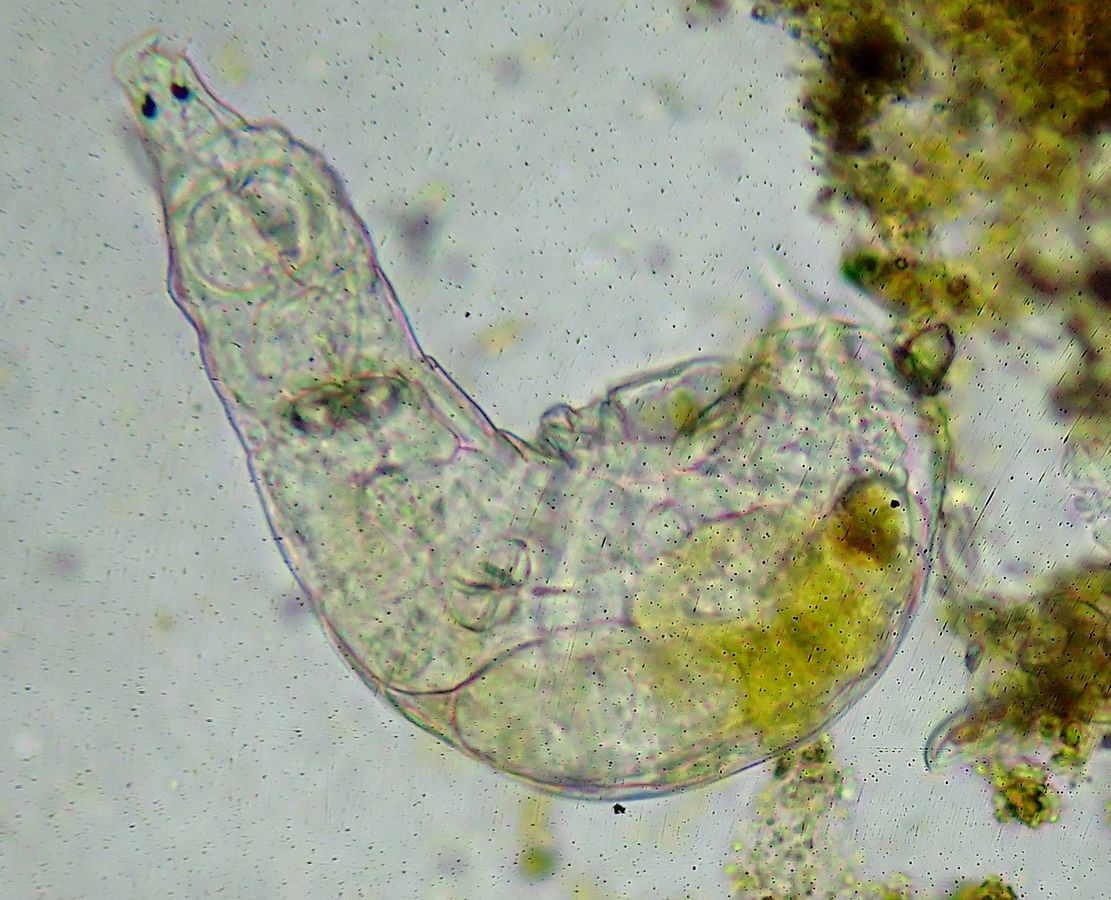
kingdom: Animalia
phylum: Rotifera
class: Eurotatoria
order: Bdelloidea
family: Philodinidae
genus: Rotaria
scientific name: Rotaria tardigrada
